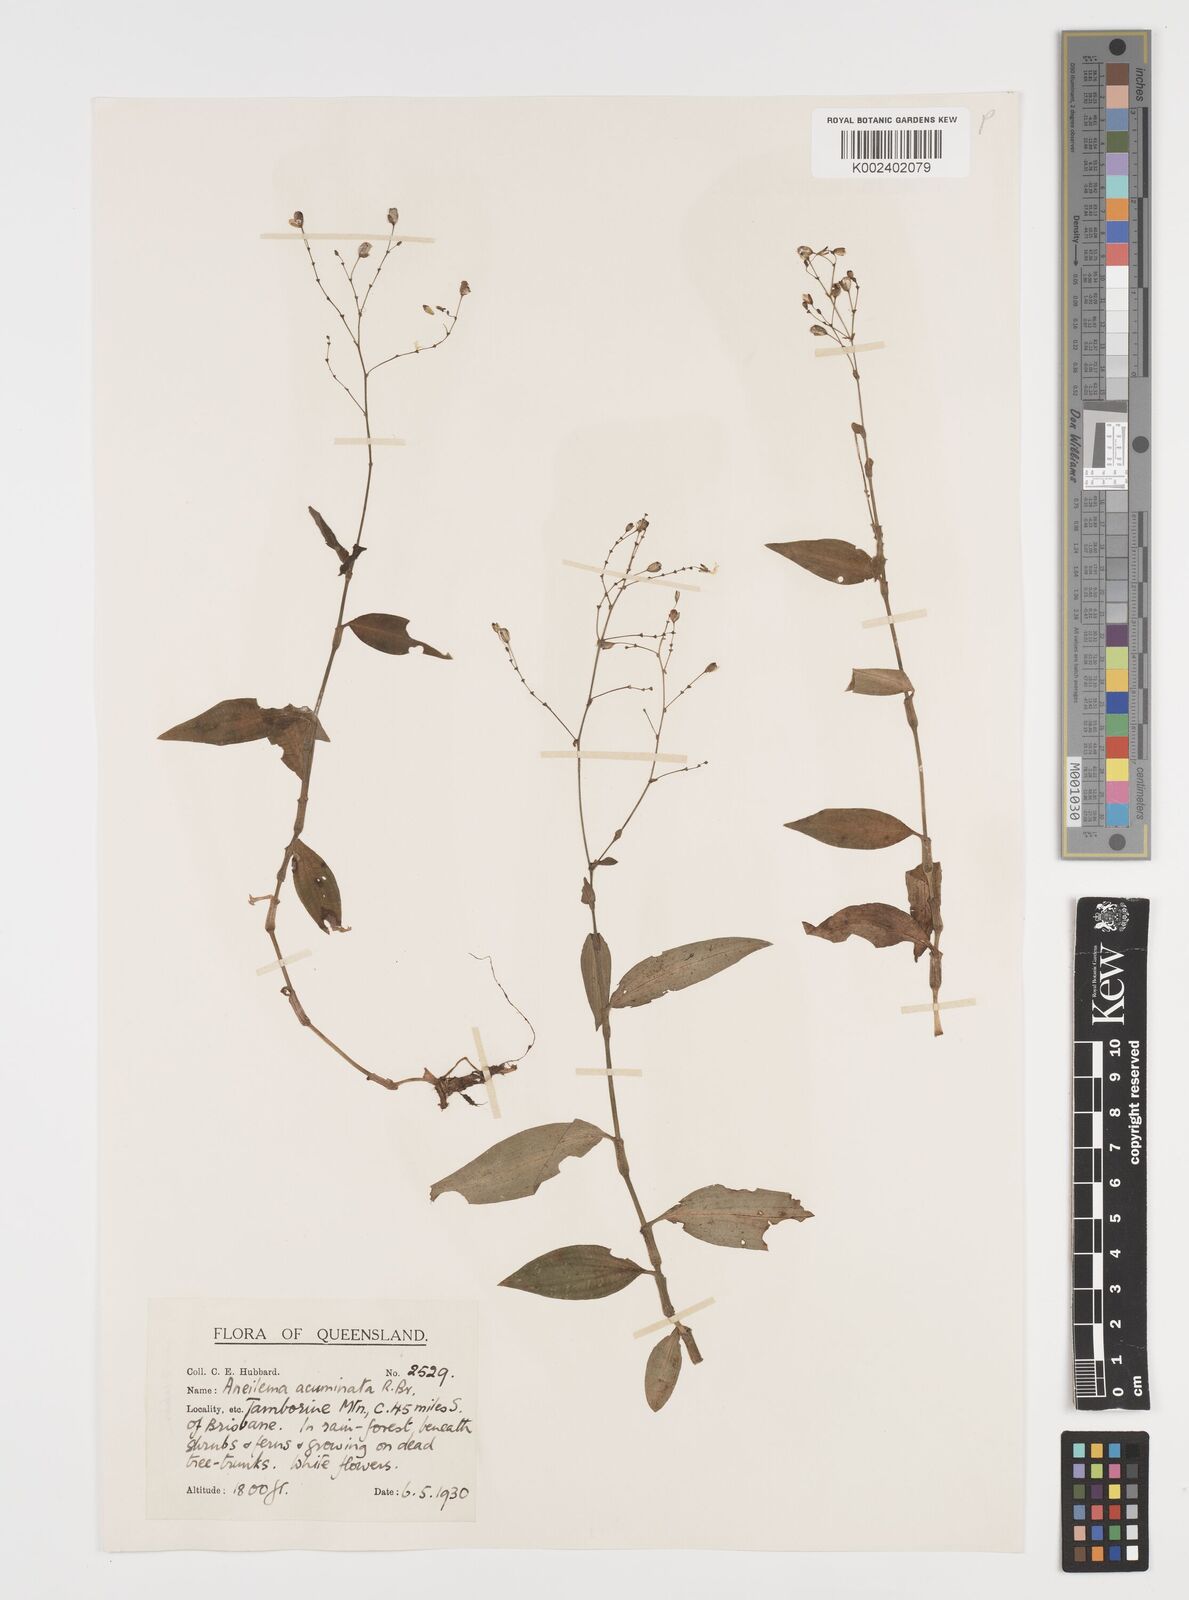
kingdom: Plantae
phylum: Tracheophyta
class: Liliopsida
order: Commelinales
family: Commelinaceae
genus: Aneilema
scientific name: Aneilema acuminatum
